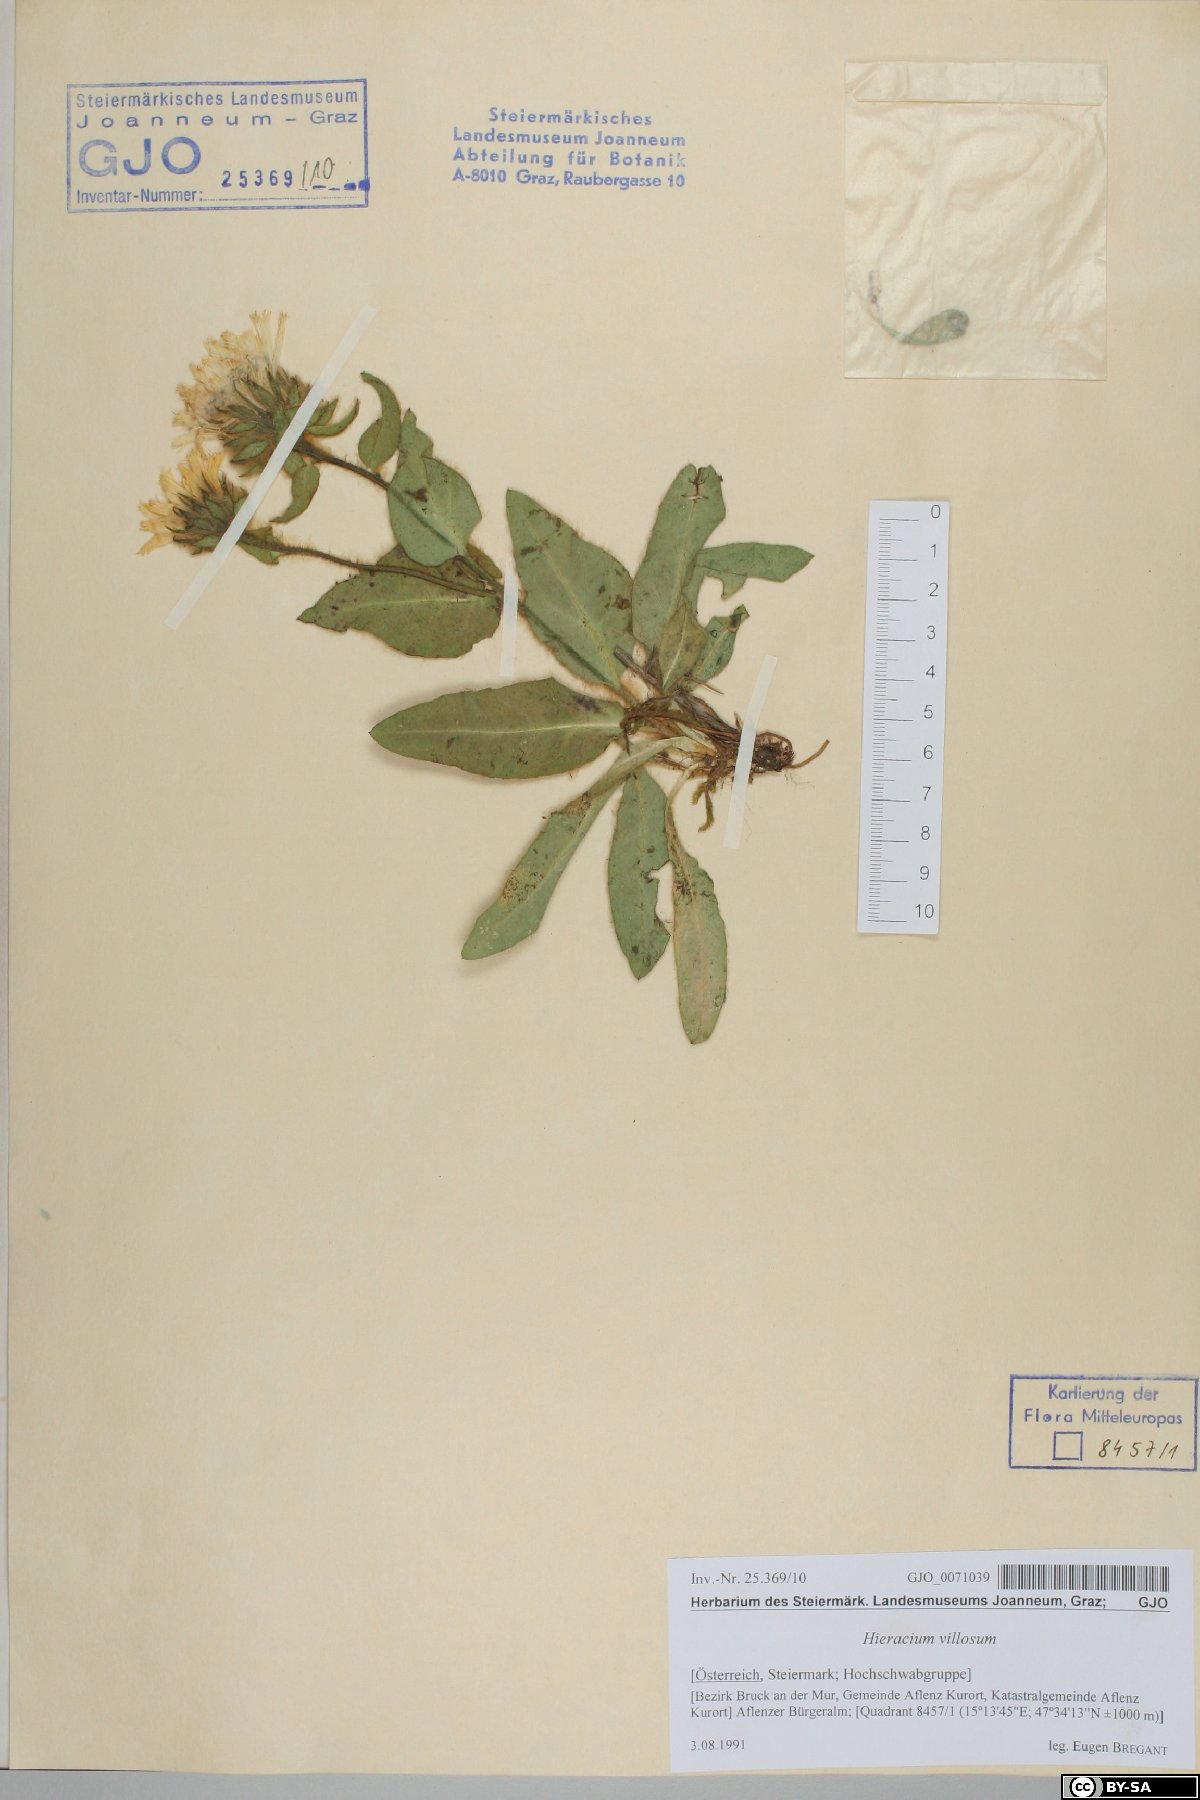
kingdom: Plantae
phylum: Tracheophyta
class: Magnoliopsida
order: Asterales
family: Asteraceae
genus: Hieracium
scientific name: Hieracium villosum
